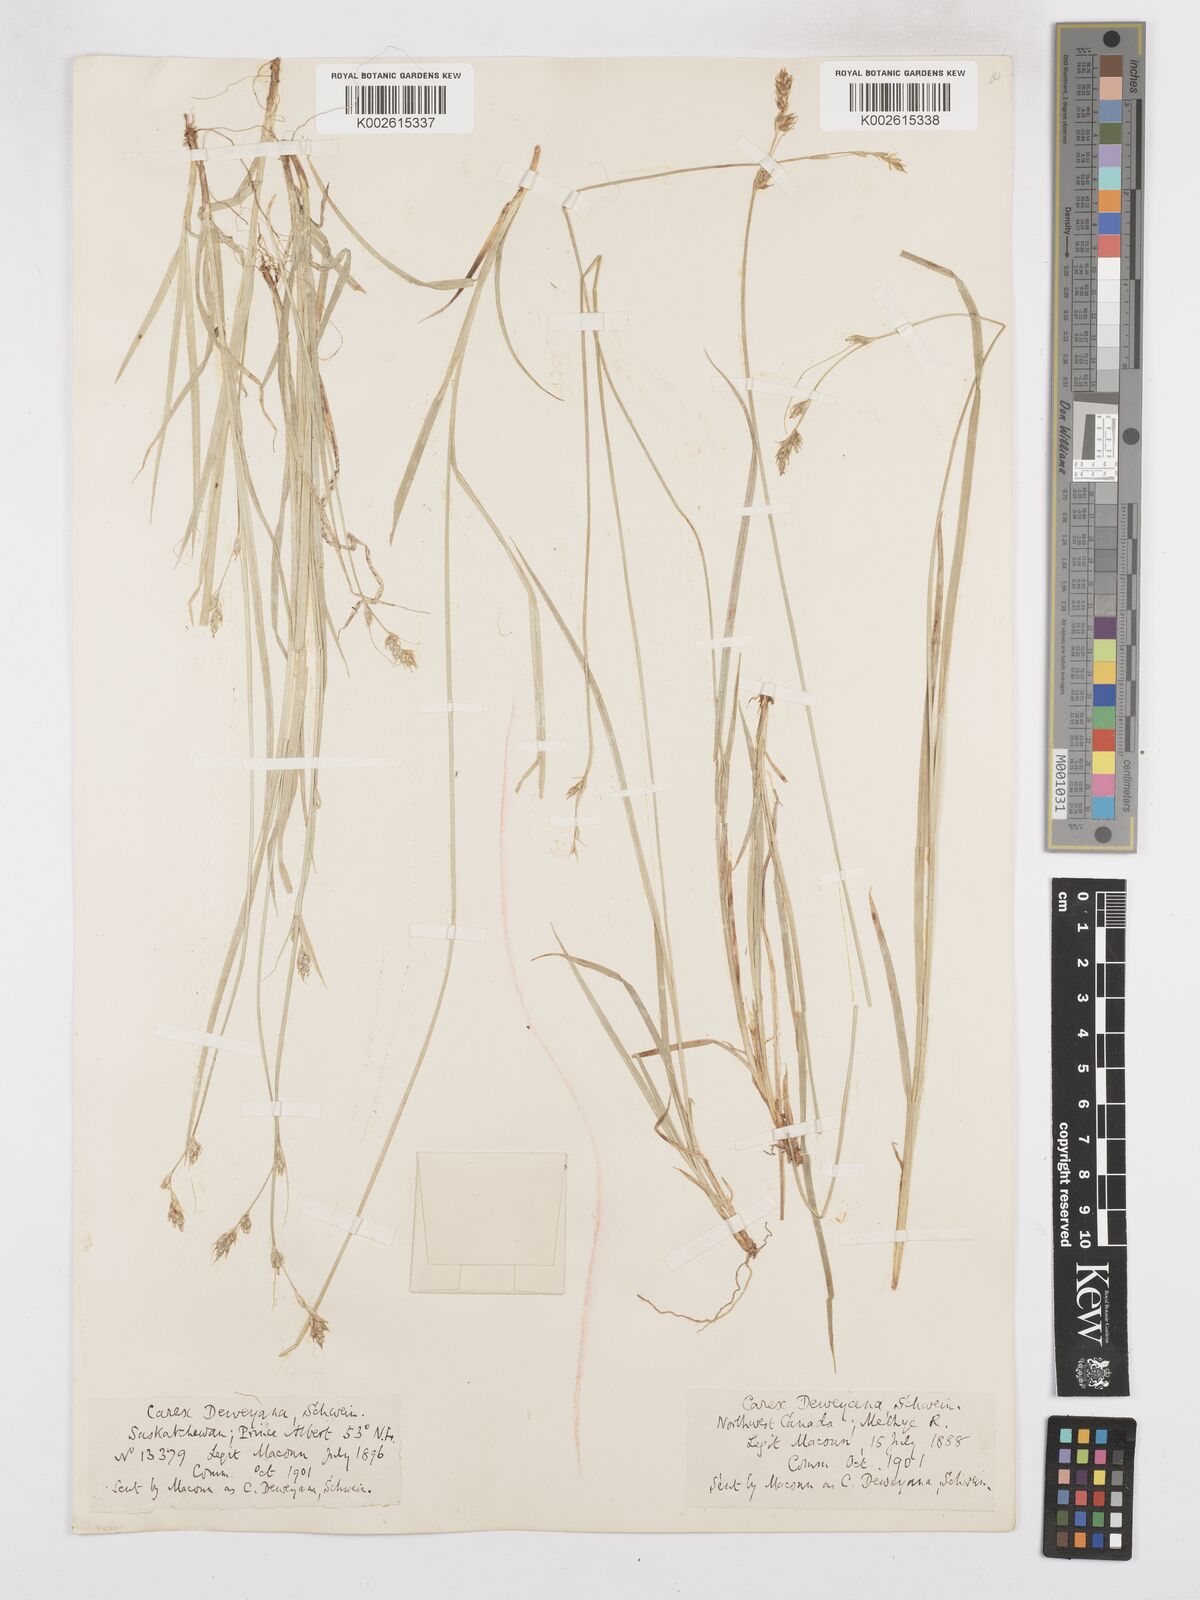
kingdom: Plantae
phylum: Tracheophyta
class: Liliopsida
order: Poales
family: Cyperaceae
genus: Carex
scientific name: Carex deweyana
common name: Dewey's sedge
